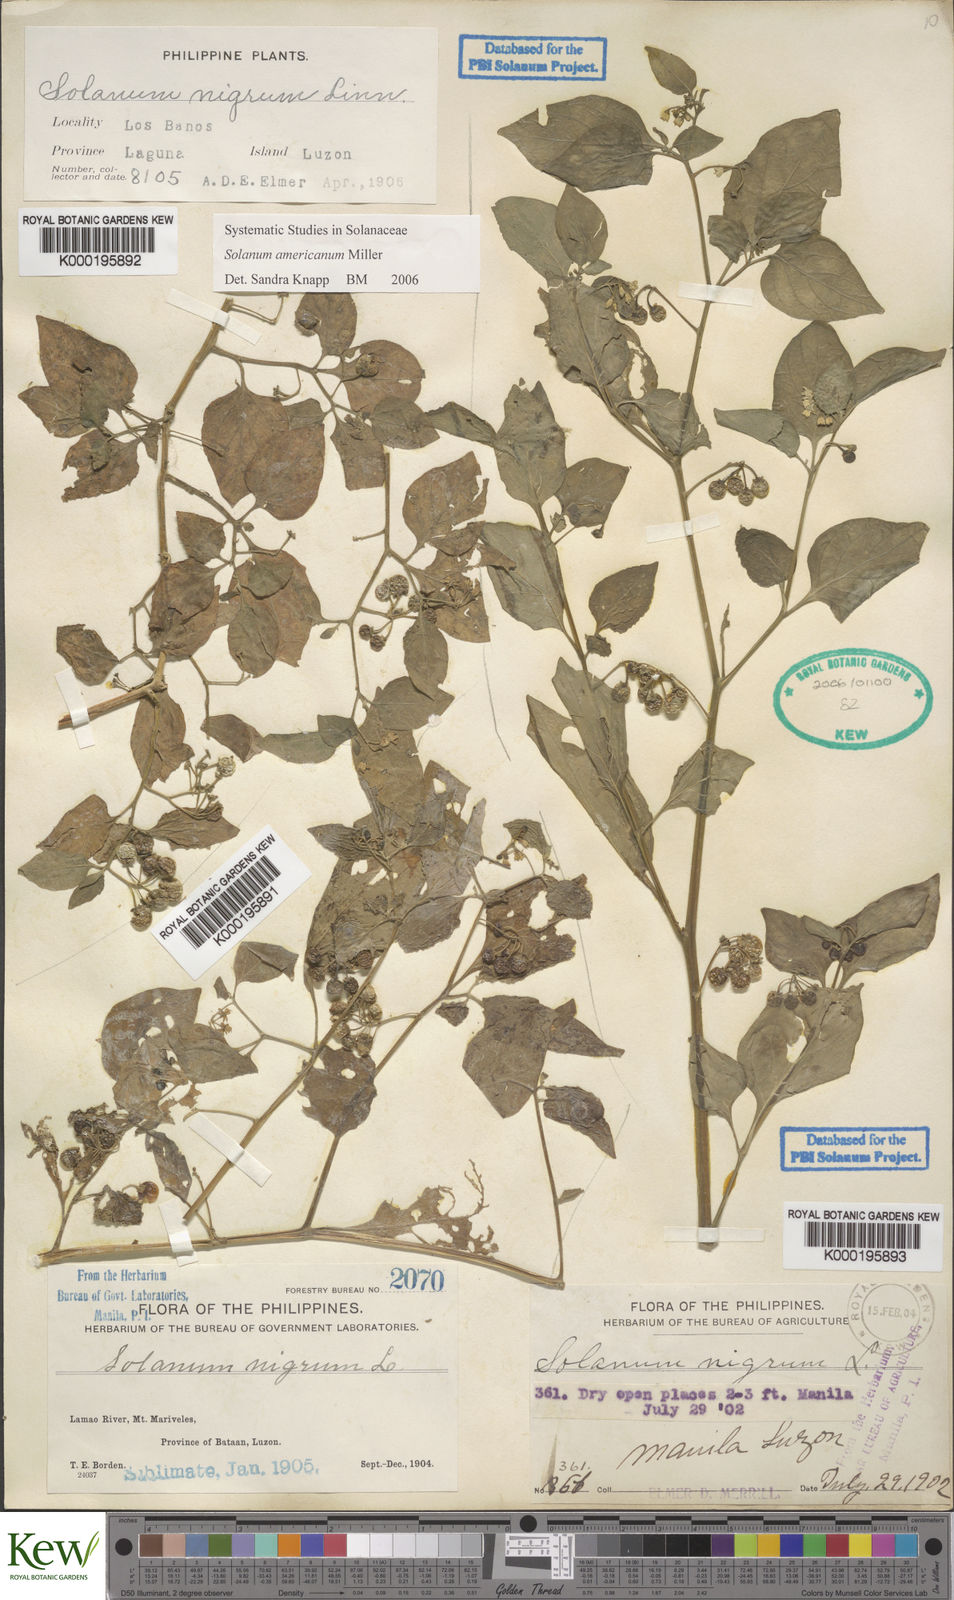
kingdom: Plantae
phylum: Tracheophyta
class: Magnoliopsida
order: Solanales
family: Solanaceae
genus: Solanum
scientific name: Solanum americanum
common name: American black nightshade
